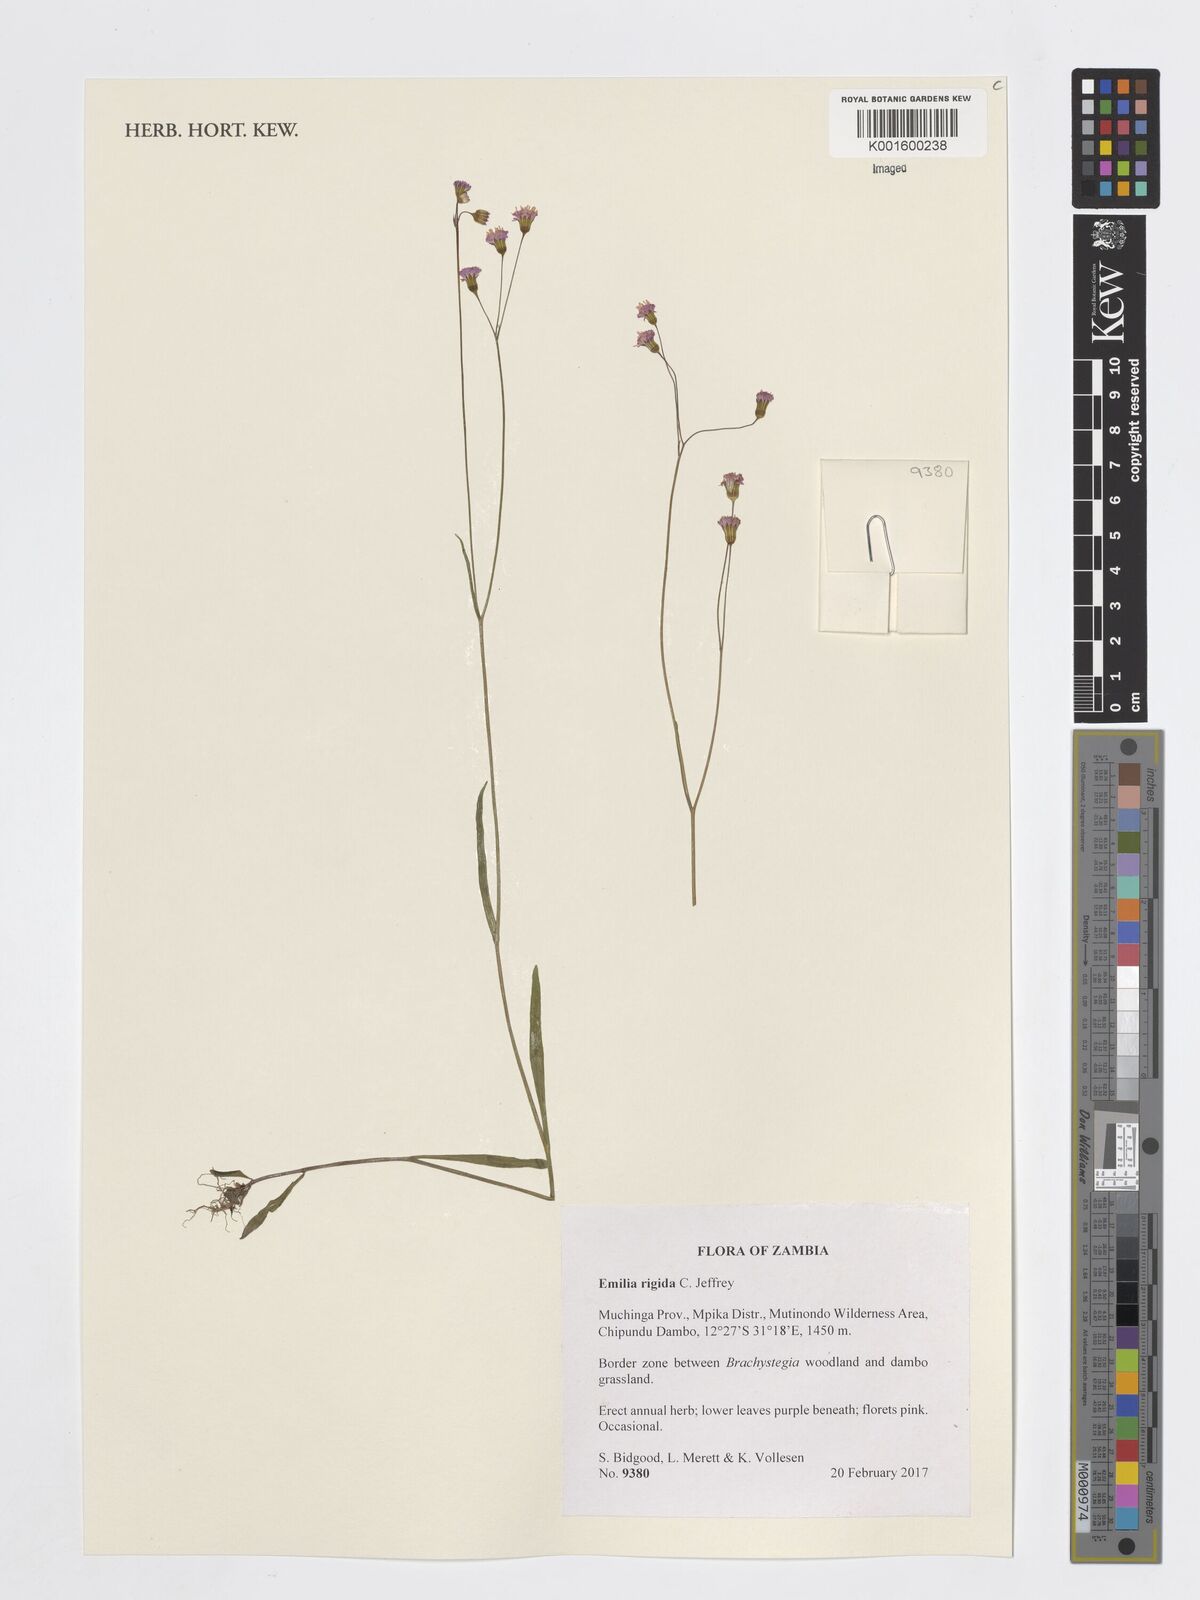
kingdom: Plantae
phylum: Tracheophyta
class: Magnoliopsida
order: Asterales
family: Asteraceae
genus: Emilia
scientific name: Emilia rigida
